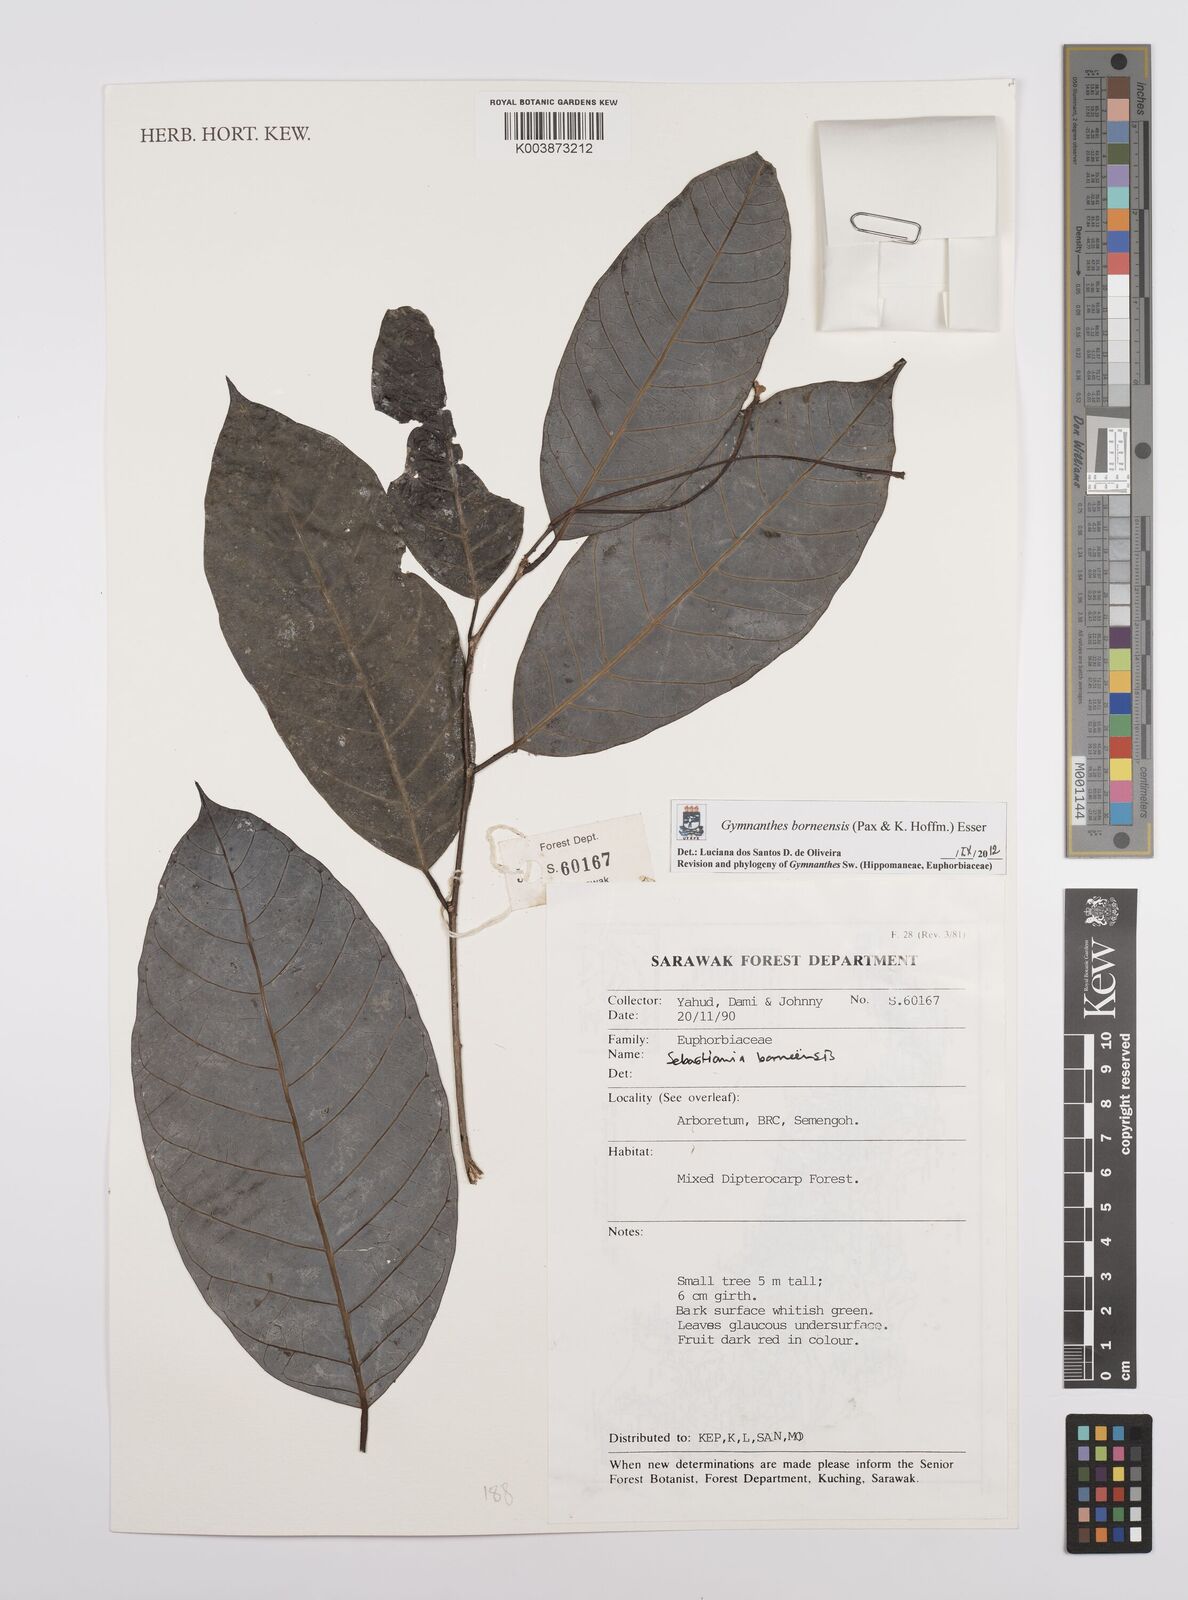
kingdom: Plantae
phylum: Tracheophyta
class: Magnoliopsida
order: Malpighiales
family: Euphorbiaceae
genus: Gymnanthes
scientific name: Gymnanthes borneensis
